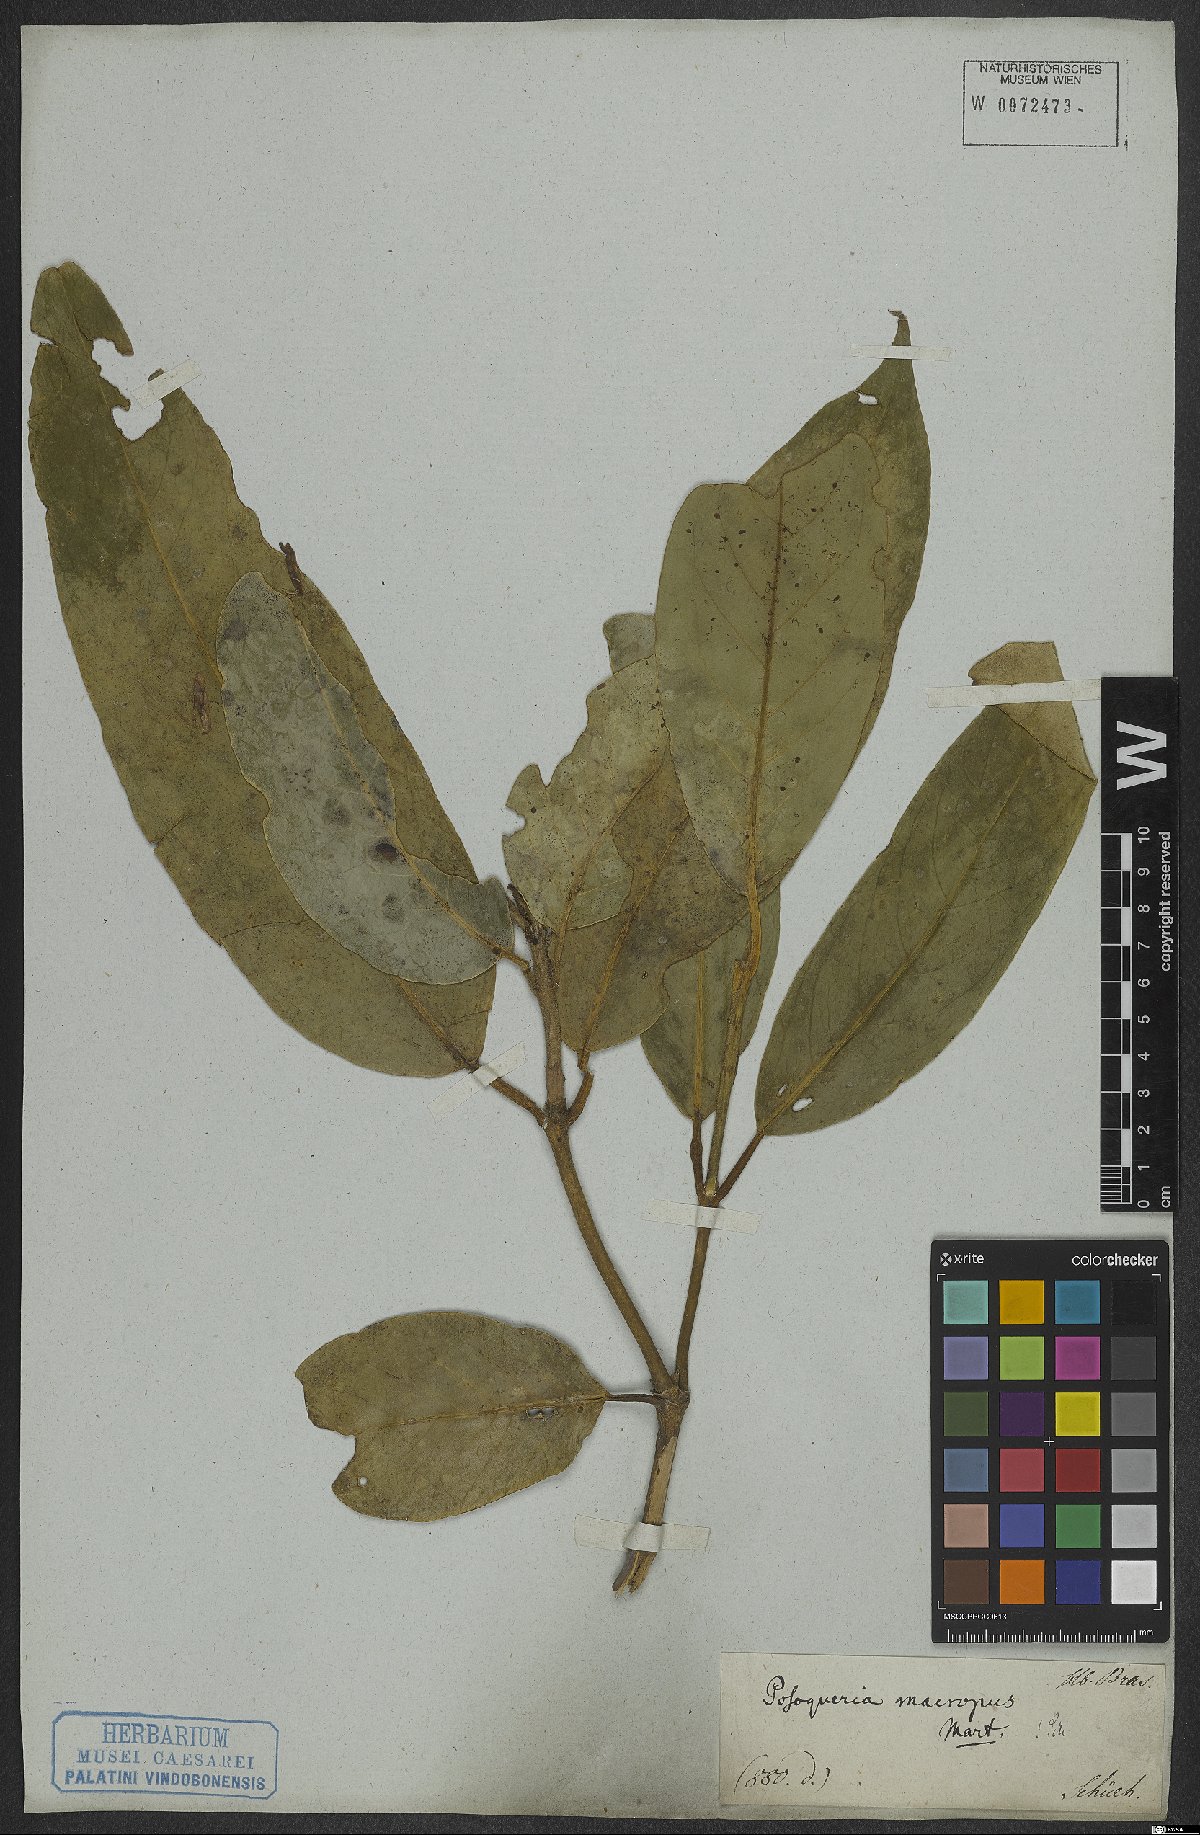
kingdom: Plantae
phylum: Tracheophyta
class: Magnoliopsida
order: Gentianales
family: Rubiaceae
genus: Posoqueria
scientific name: Posoqueria latifolia
